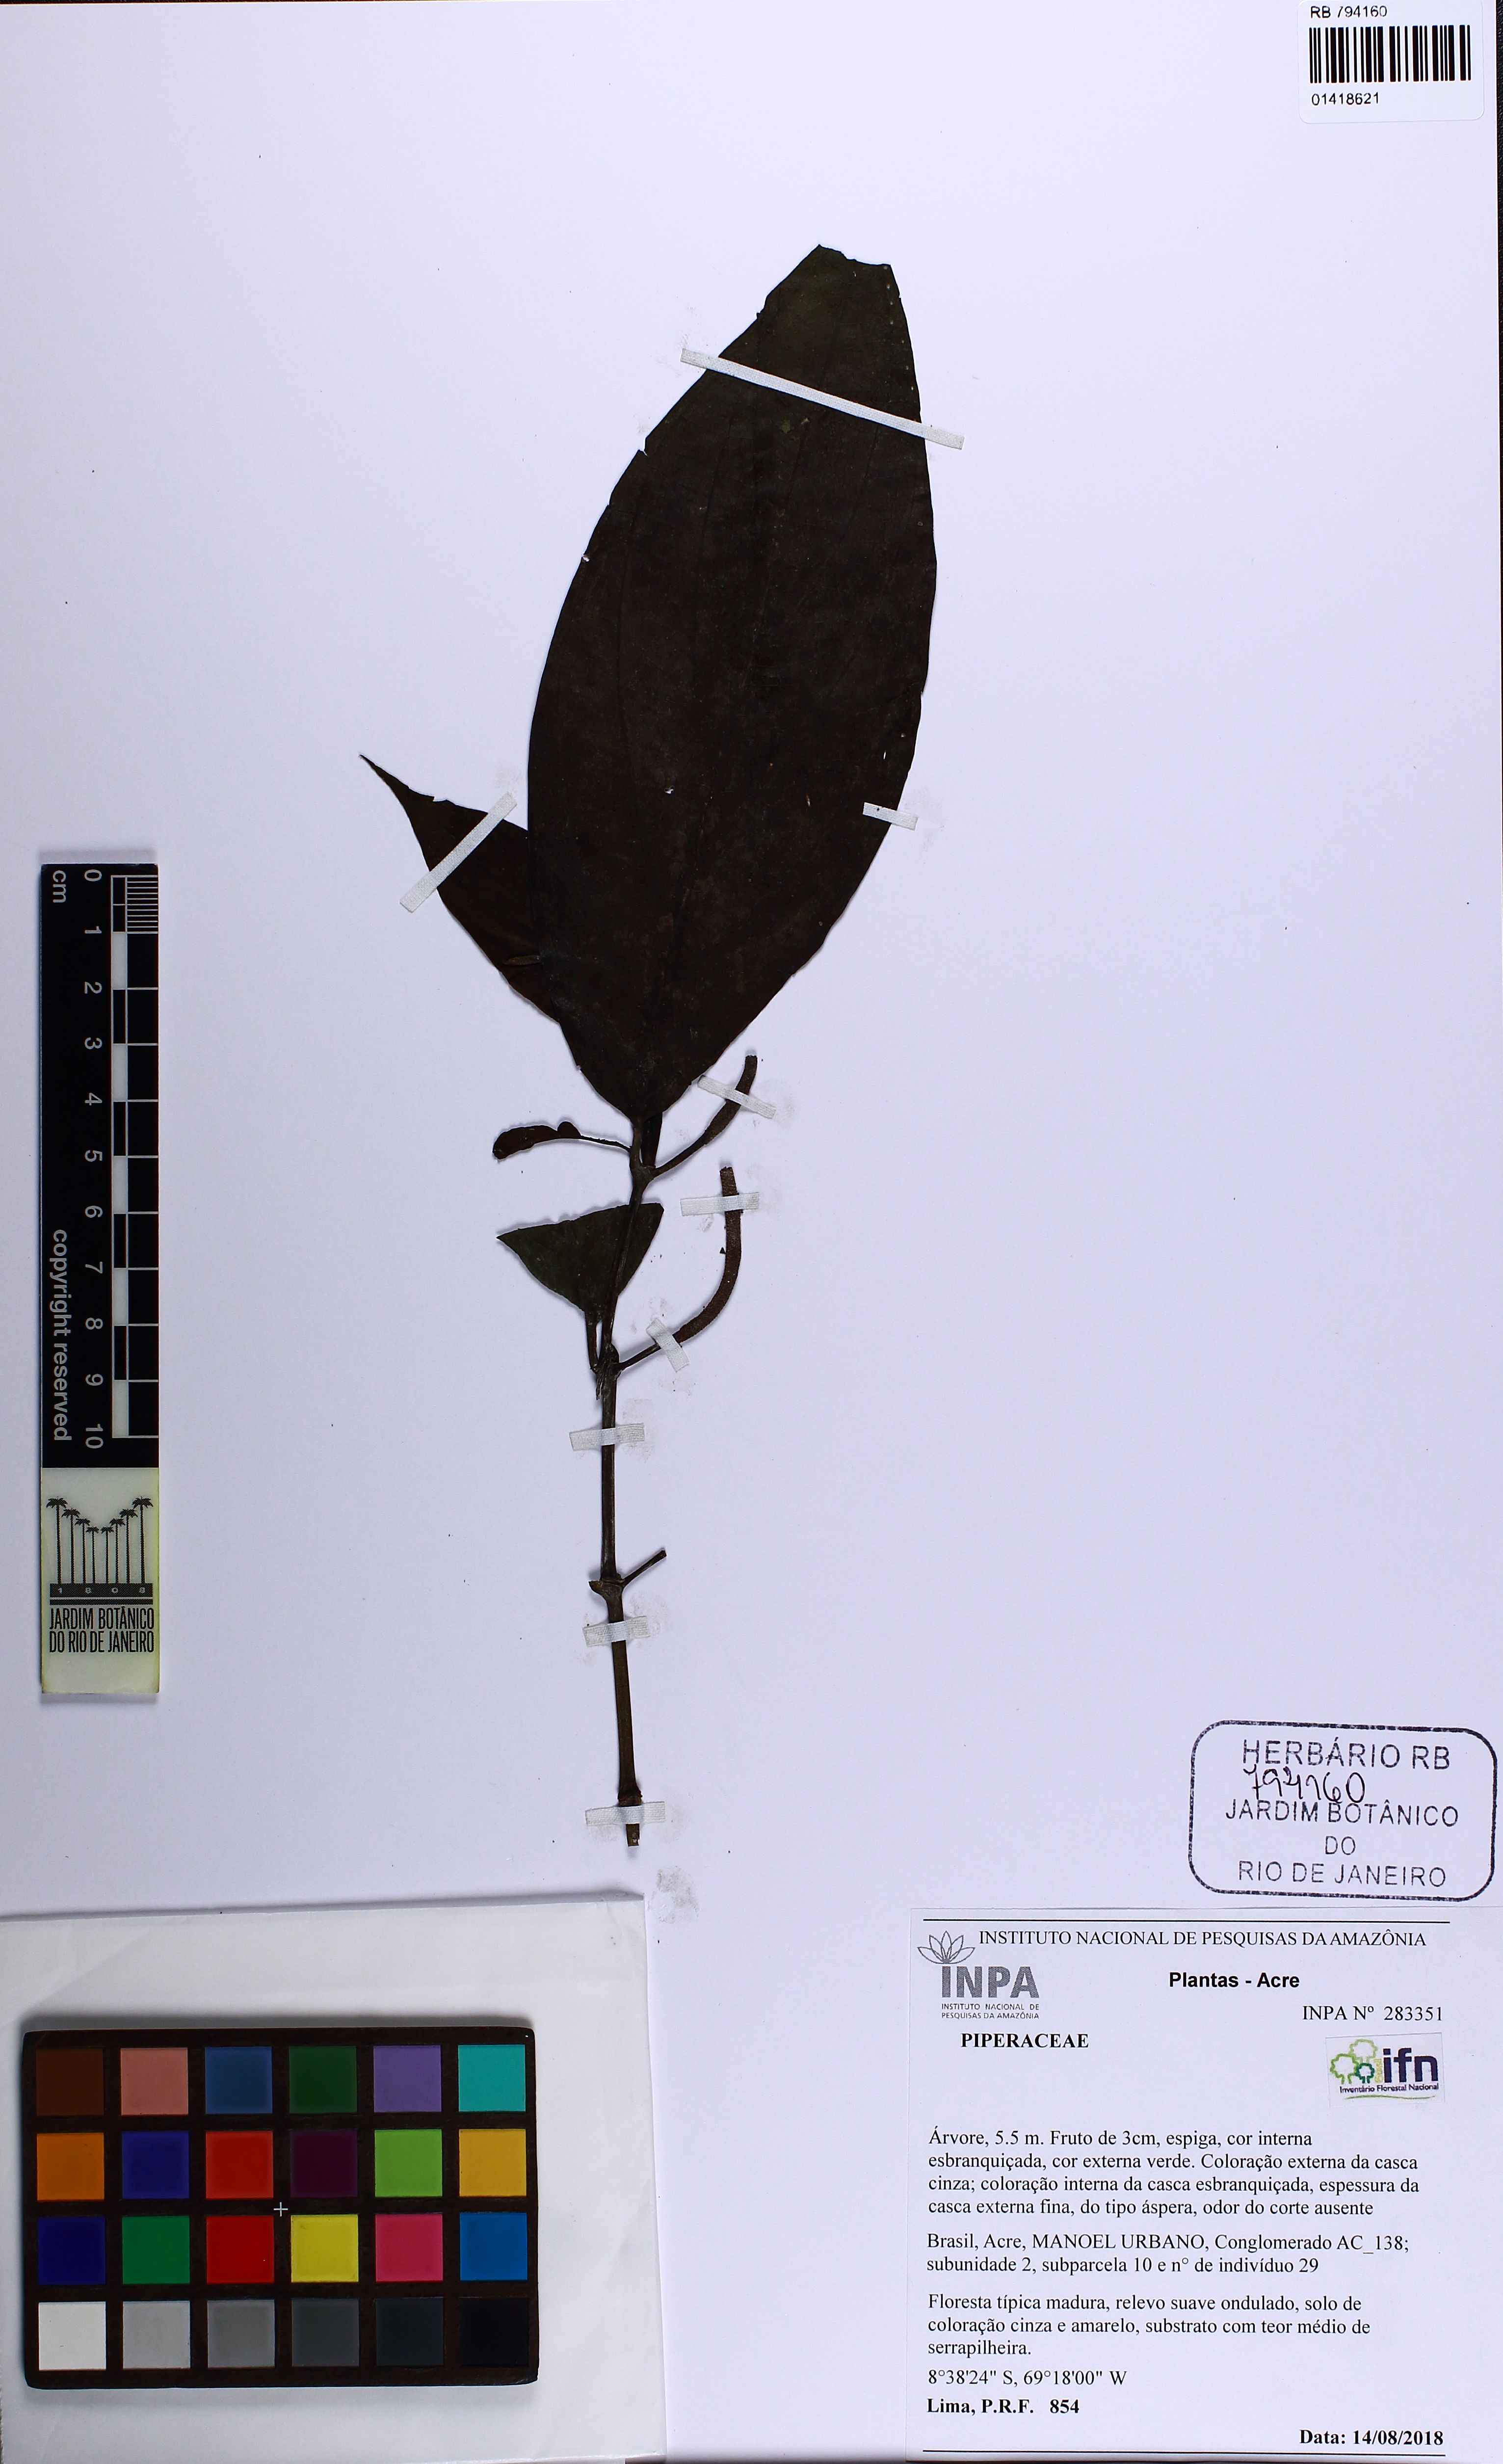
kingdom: Plantae
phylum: Tracheophyta
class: Magnoliopsida
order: Piperales
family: Piperaceae
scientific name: Piperaceae
